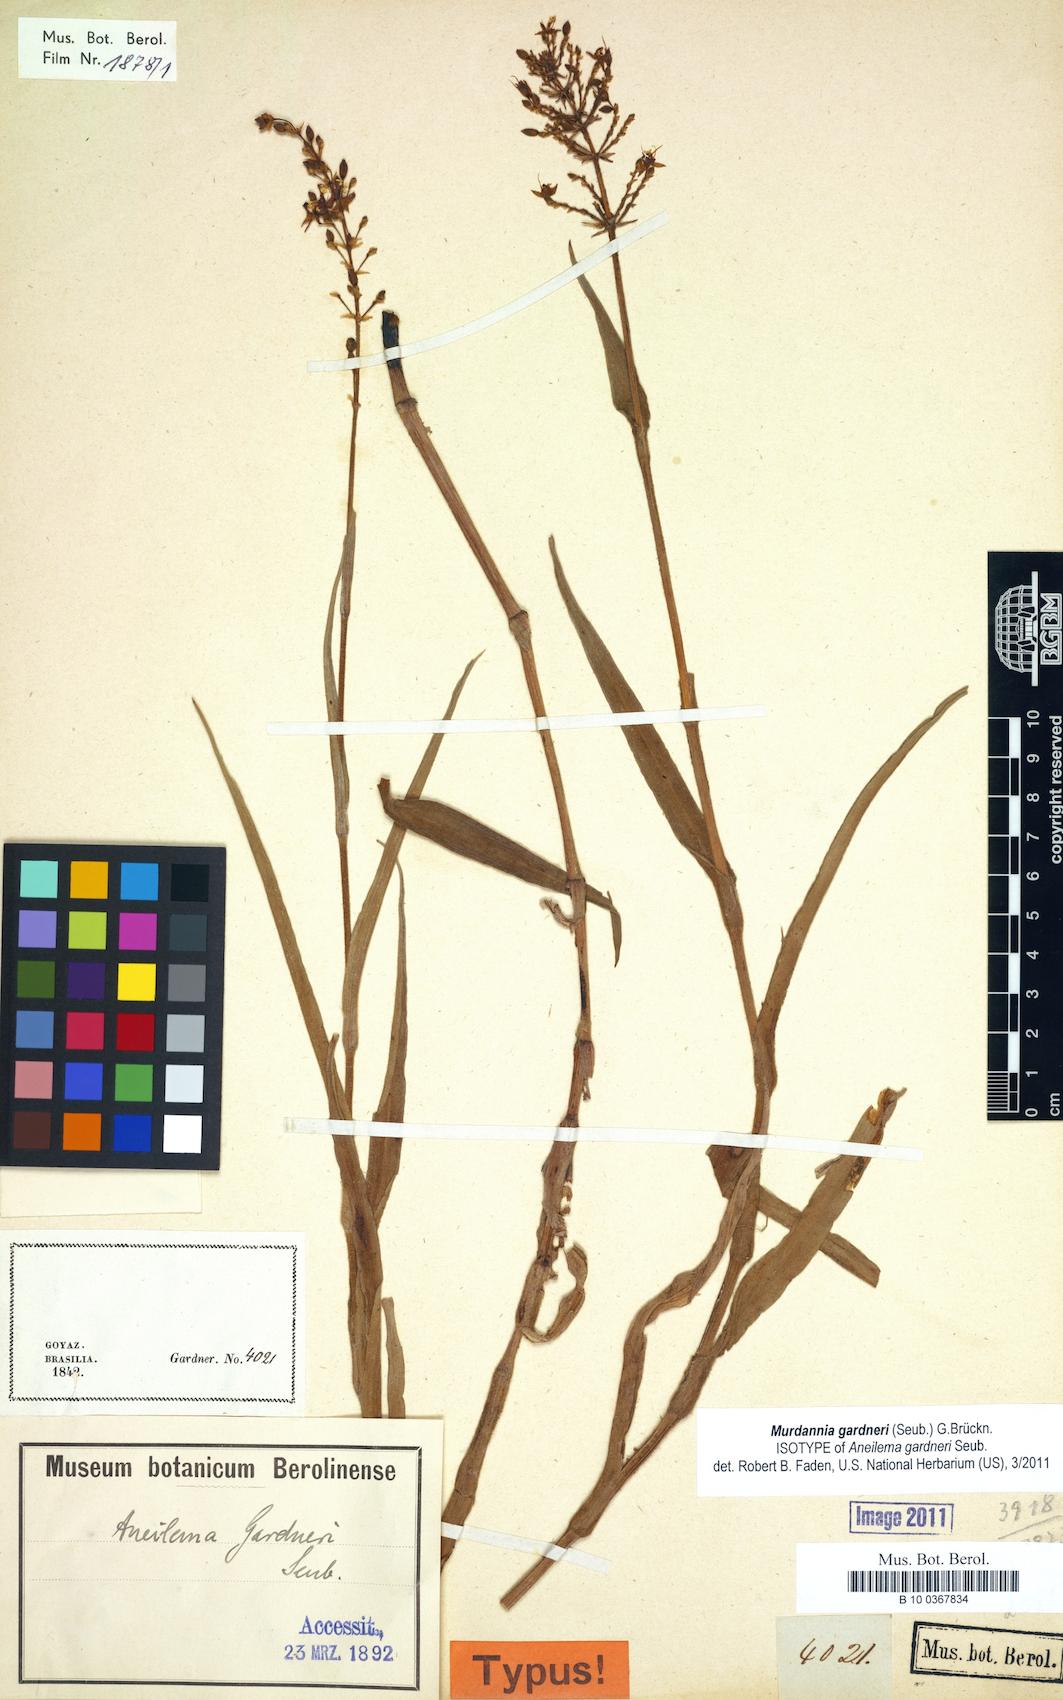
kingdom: Plantae
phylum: Tracheophyta
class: Liliopsida
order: Commelinales
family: Commelinaceae
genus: Murdannia
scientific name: Murdannia gardneri
